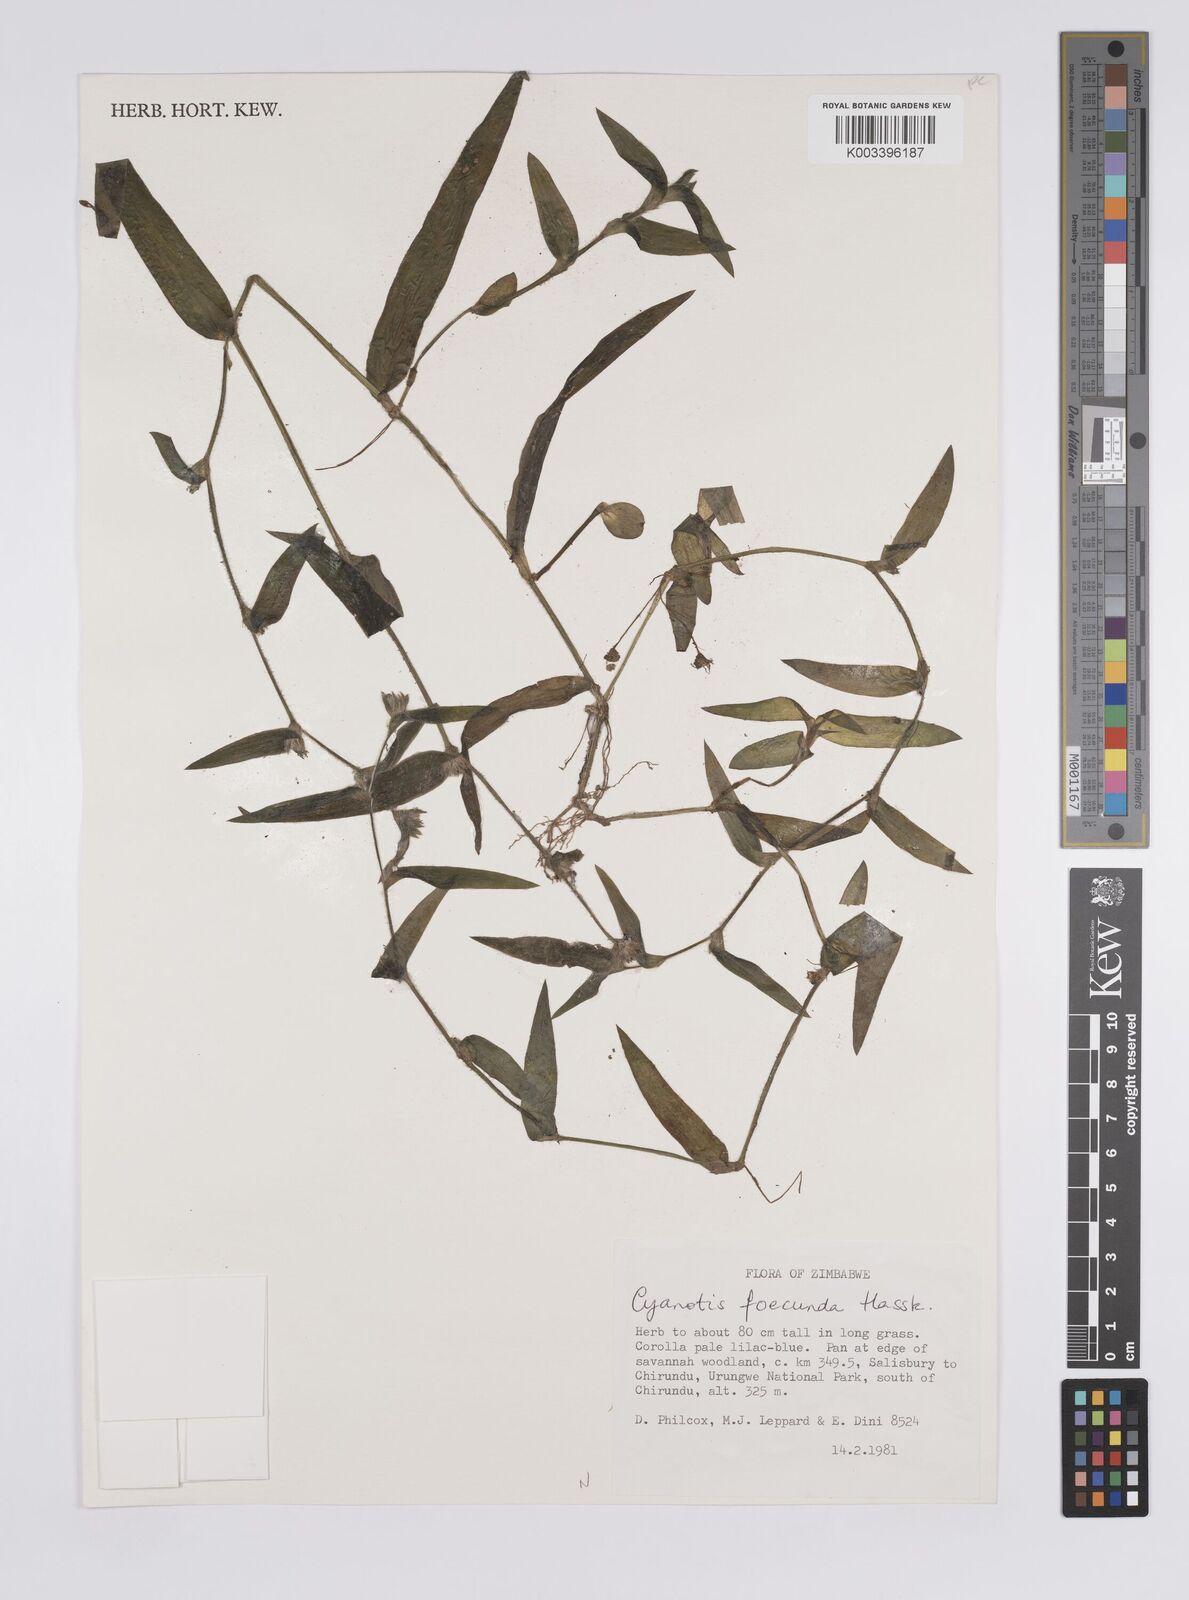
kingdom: Plantae
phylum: Tracheophyta
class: Liliopsida
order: Commelinales
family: Commelinaceae
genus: Cyanotis
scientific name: Cyanotis foecunda
